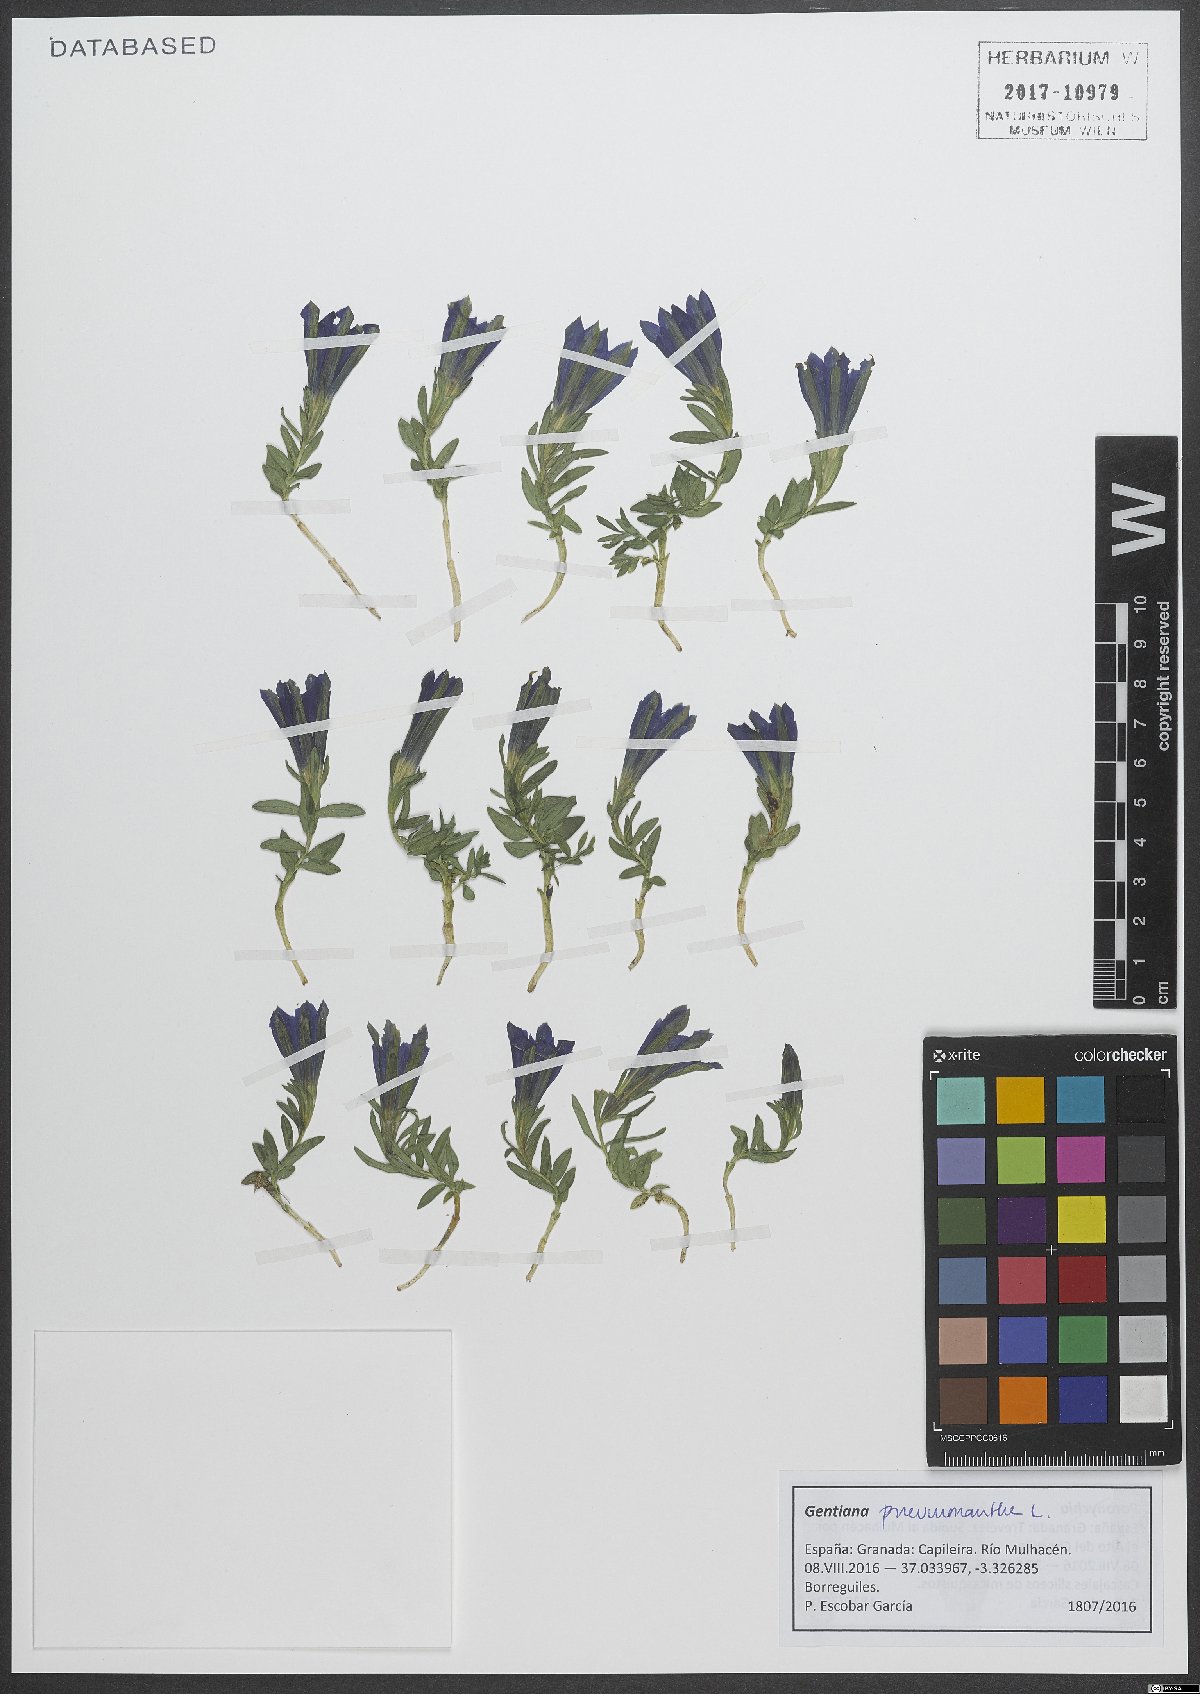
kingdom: Plantae
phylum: Tracheophyta
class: Magnoliopsida
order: Gentianales
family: Gentianaceae
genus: Gentiana
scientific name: Gentiana pneumonanthe
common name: Marsh gentian
